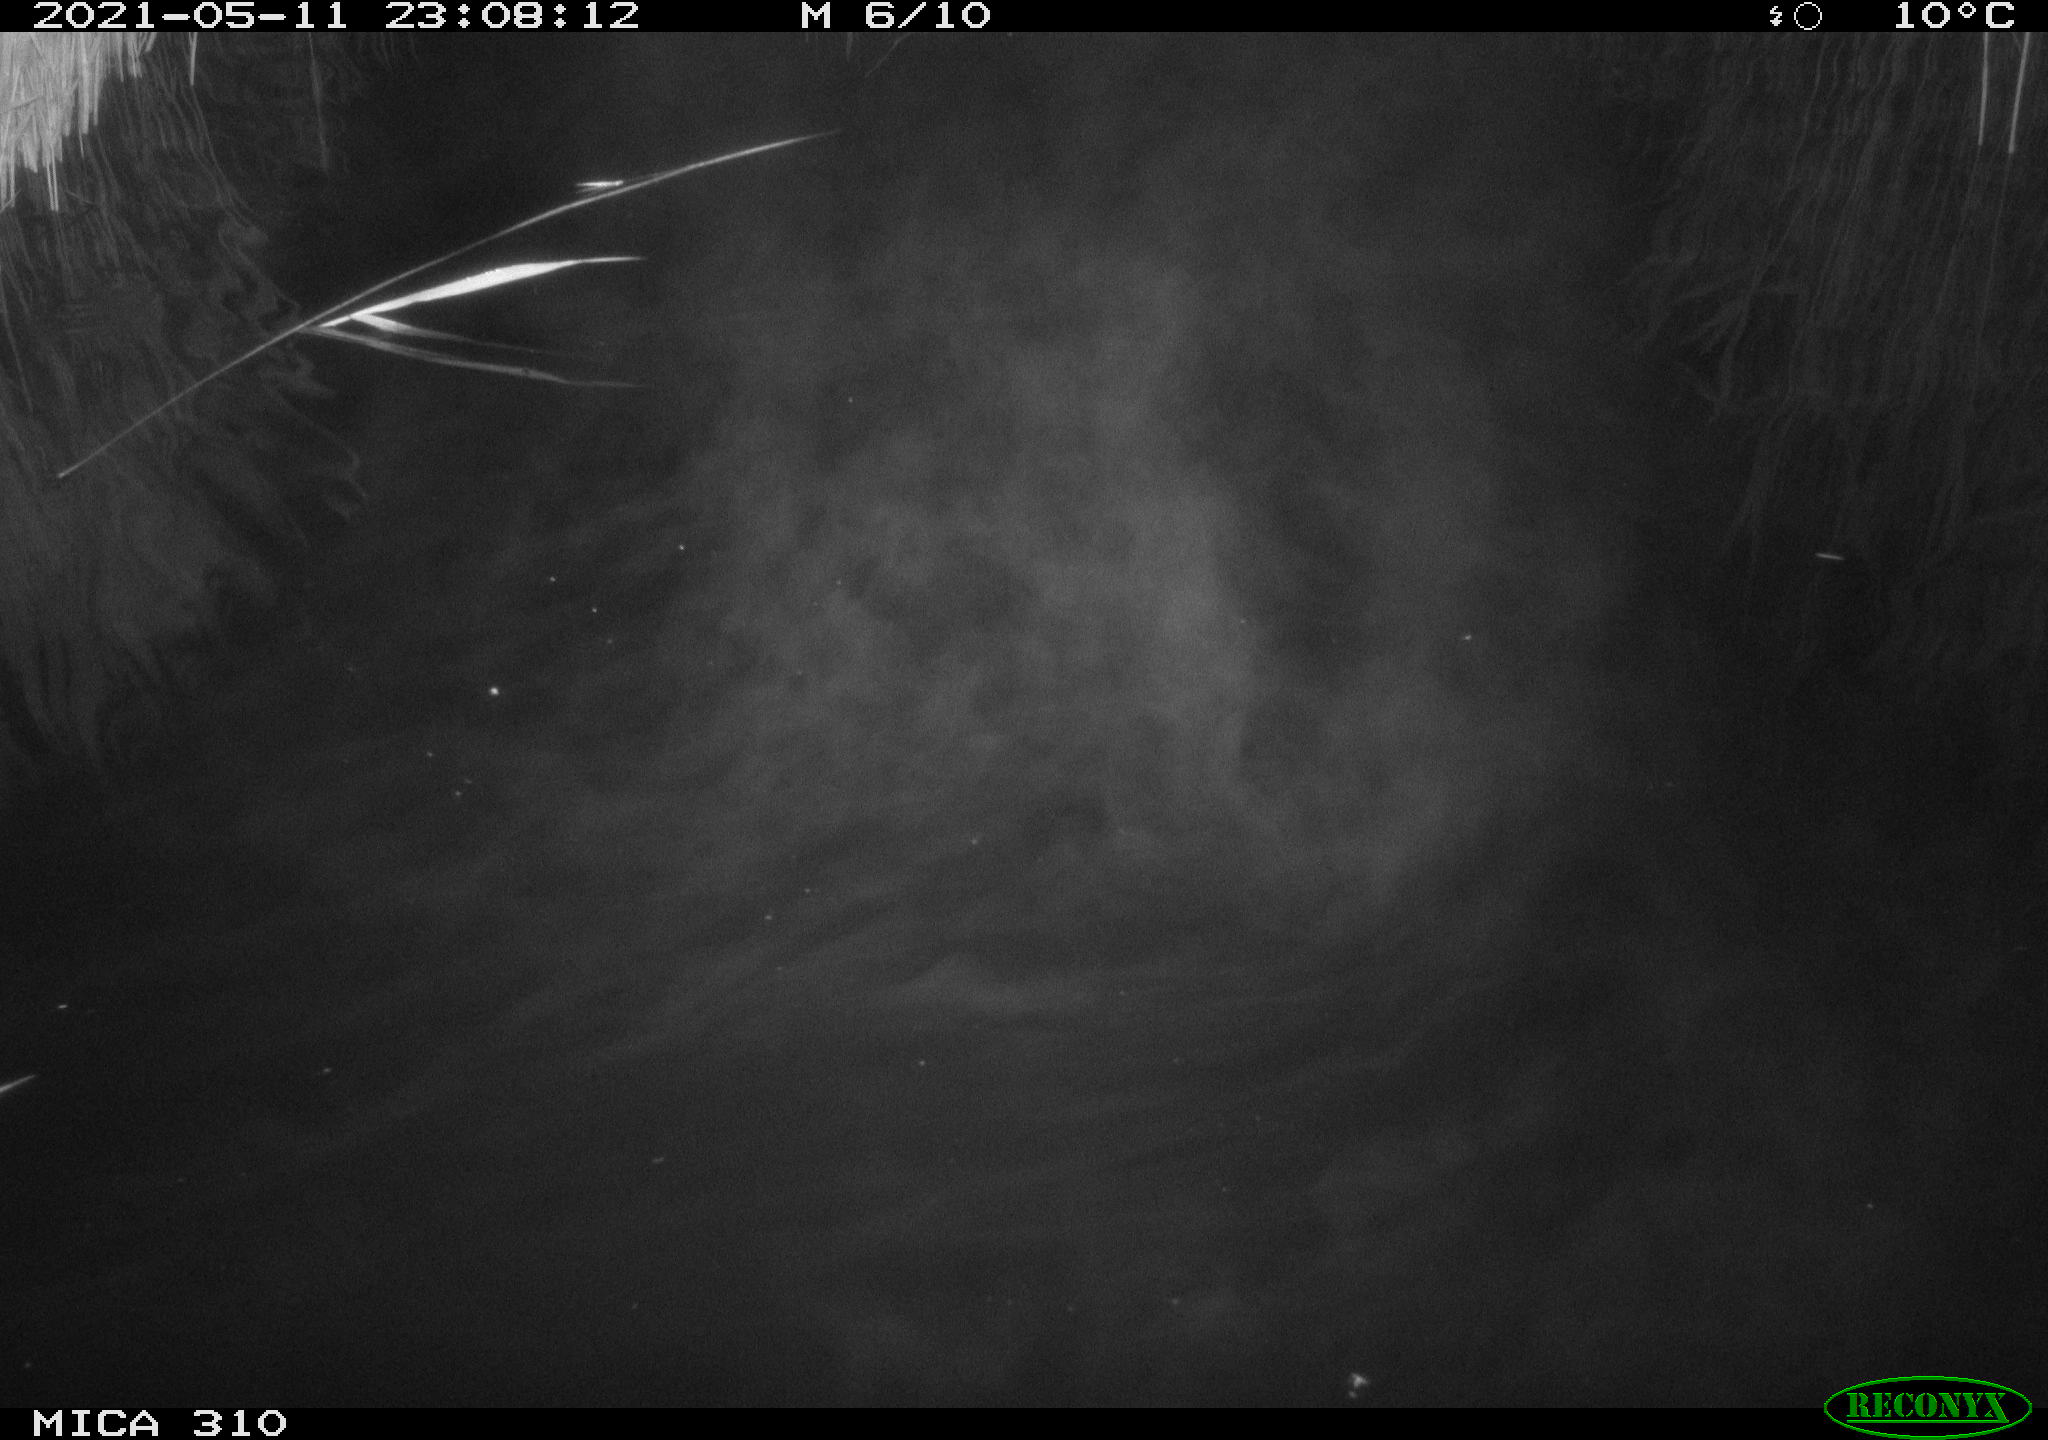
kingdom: Animalia
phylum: Chordata
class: Aves
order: Anseriformes
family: Anatidae
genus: Anas
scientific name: Anas platyrhynchos
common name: Mallard
